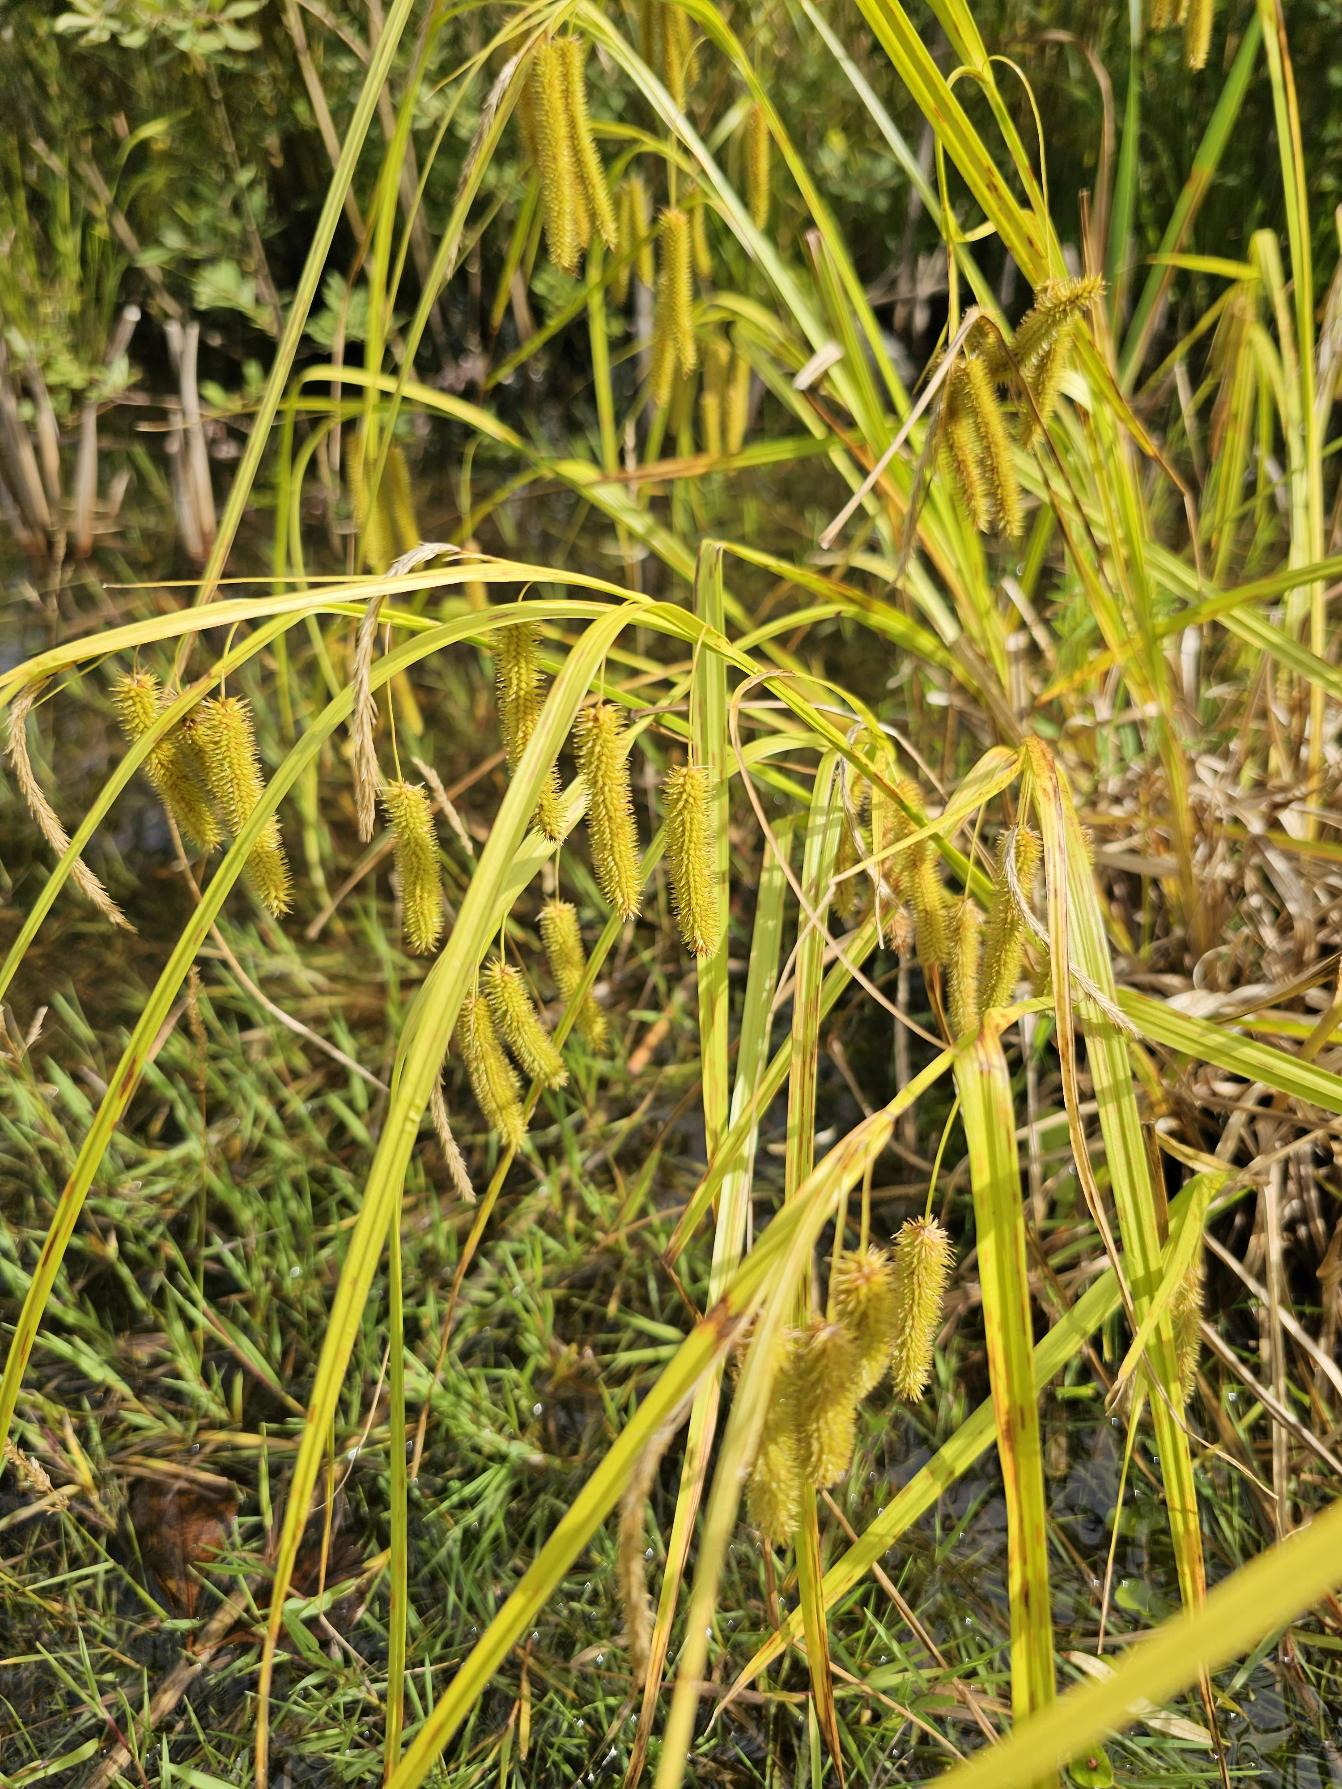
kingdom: Plantae
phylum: Tracheophyta
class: Liliopsida
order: Poales
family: Cyperaceae
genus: Carex
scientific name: Carex pseudocyperus
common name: Knippe-star
